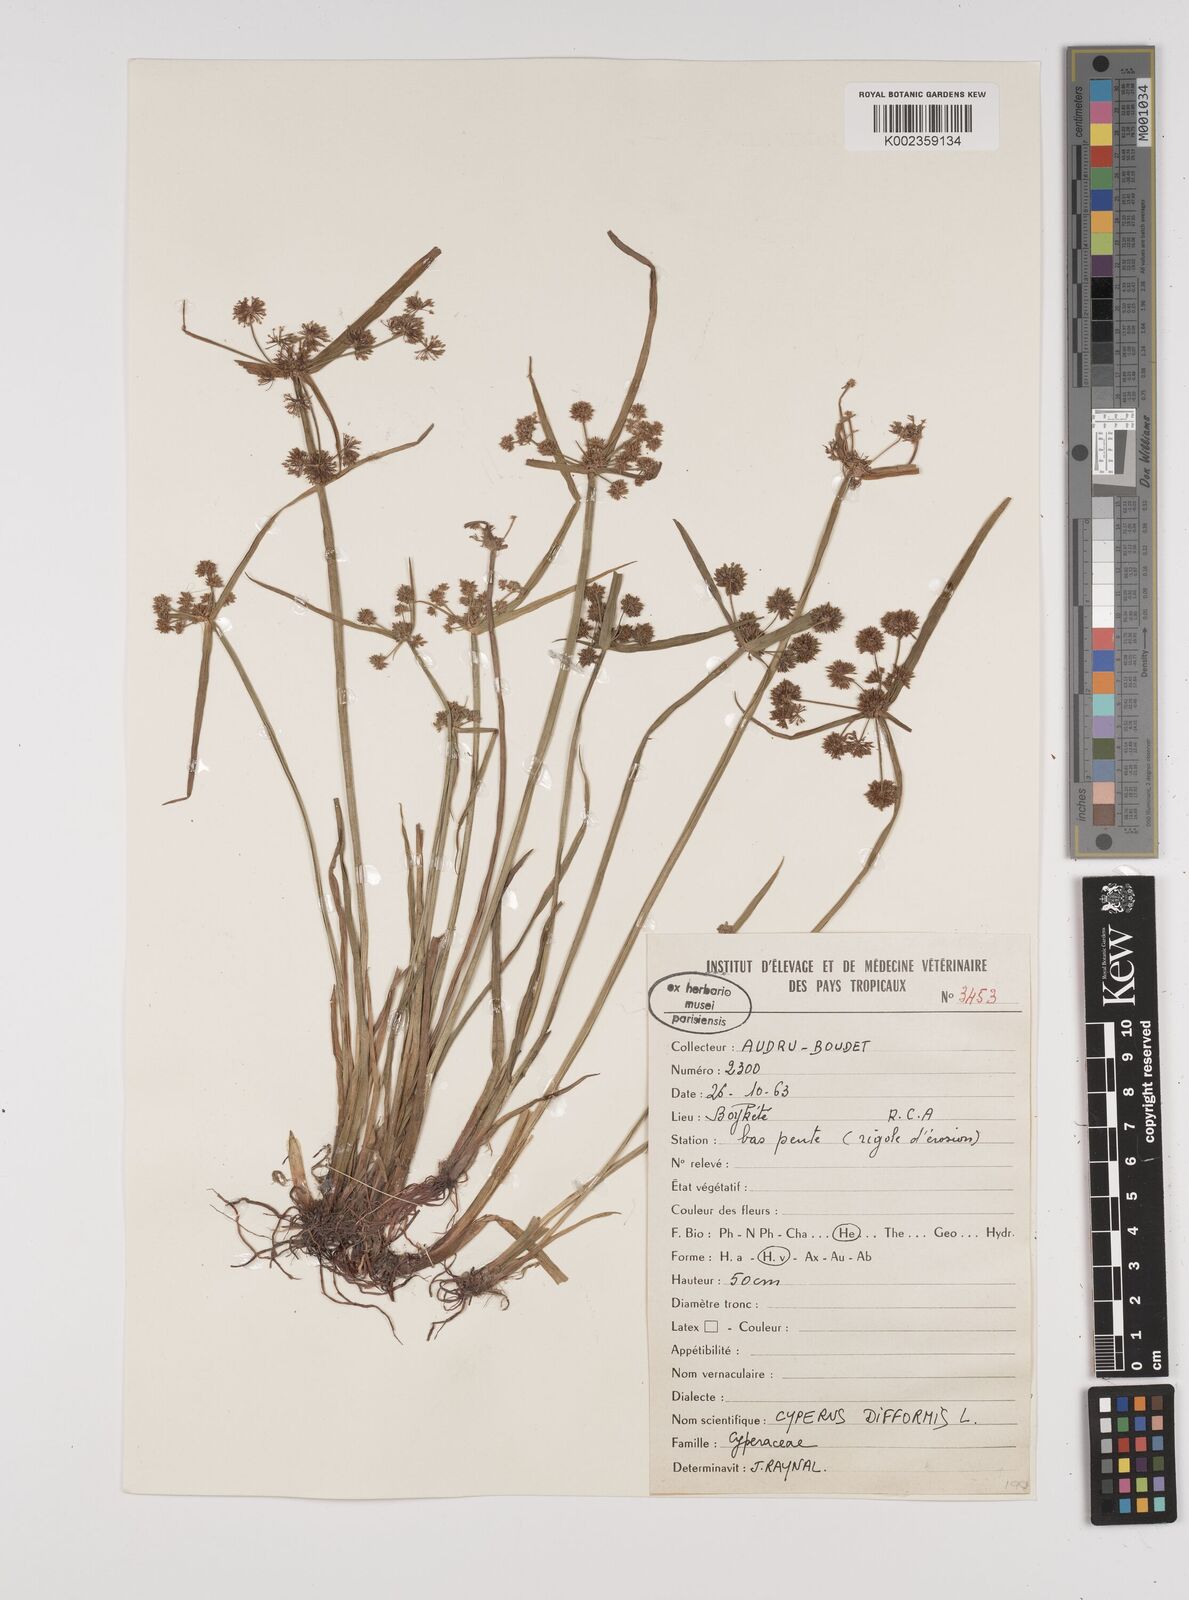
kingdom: Plantae
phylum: Tracheophyta
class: Liliopsida
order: Poales
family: Cyperaceae
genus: Cyperus
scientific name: Cyperus difformis
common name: Variable flatsedge
